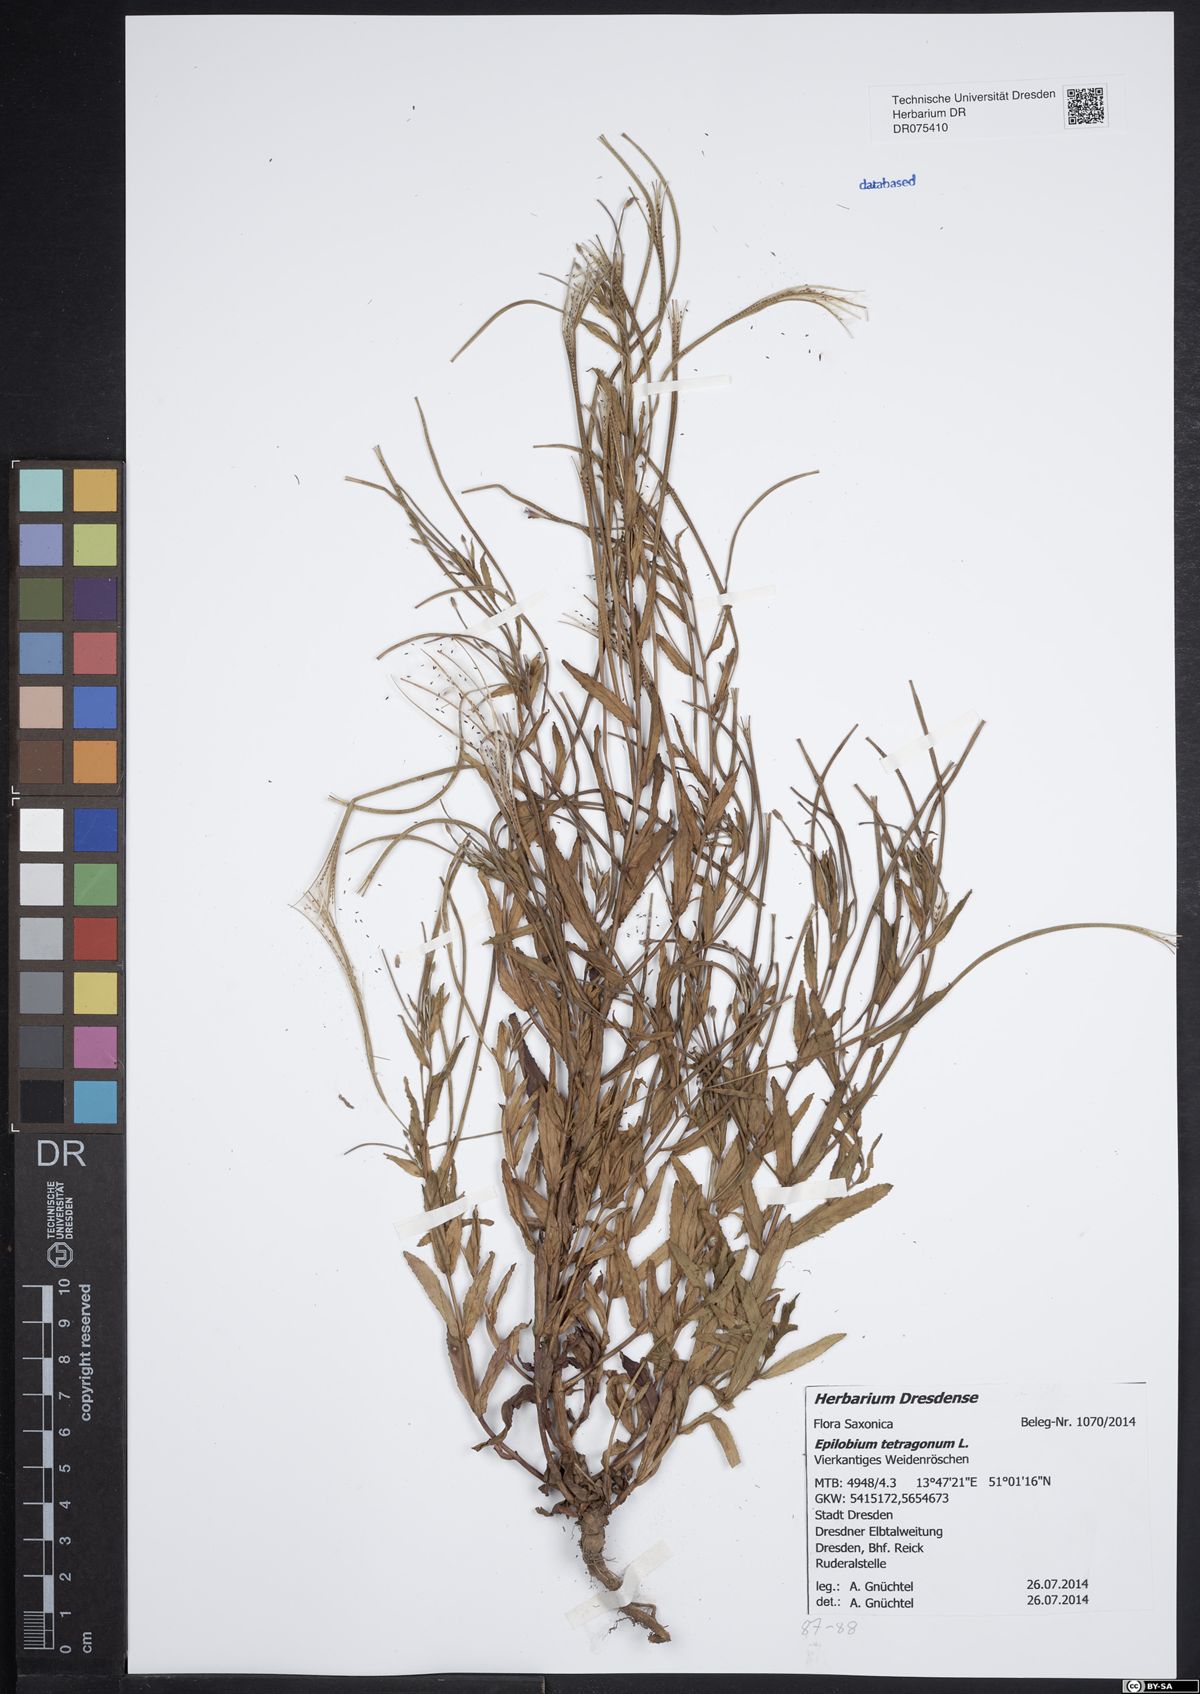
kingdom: Plantae
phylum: Tracheophyta
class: Magnoliopsida
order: Myrtales
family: Onagraceae
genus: Epilobium
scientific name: Epilobium tetragonum
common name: Square-stemmed willowherb
